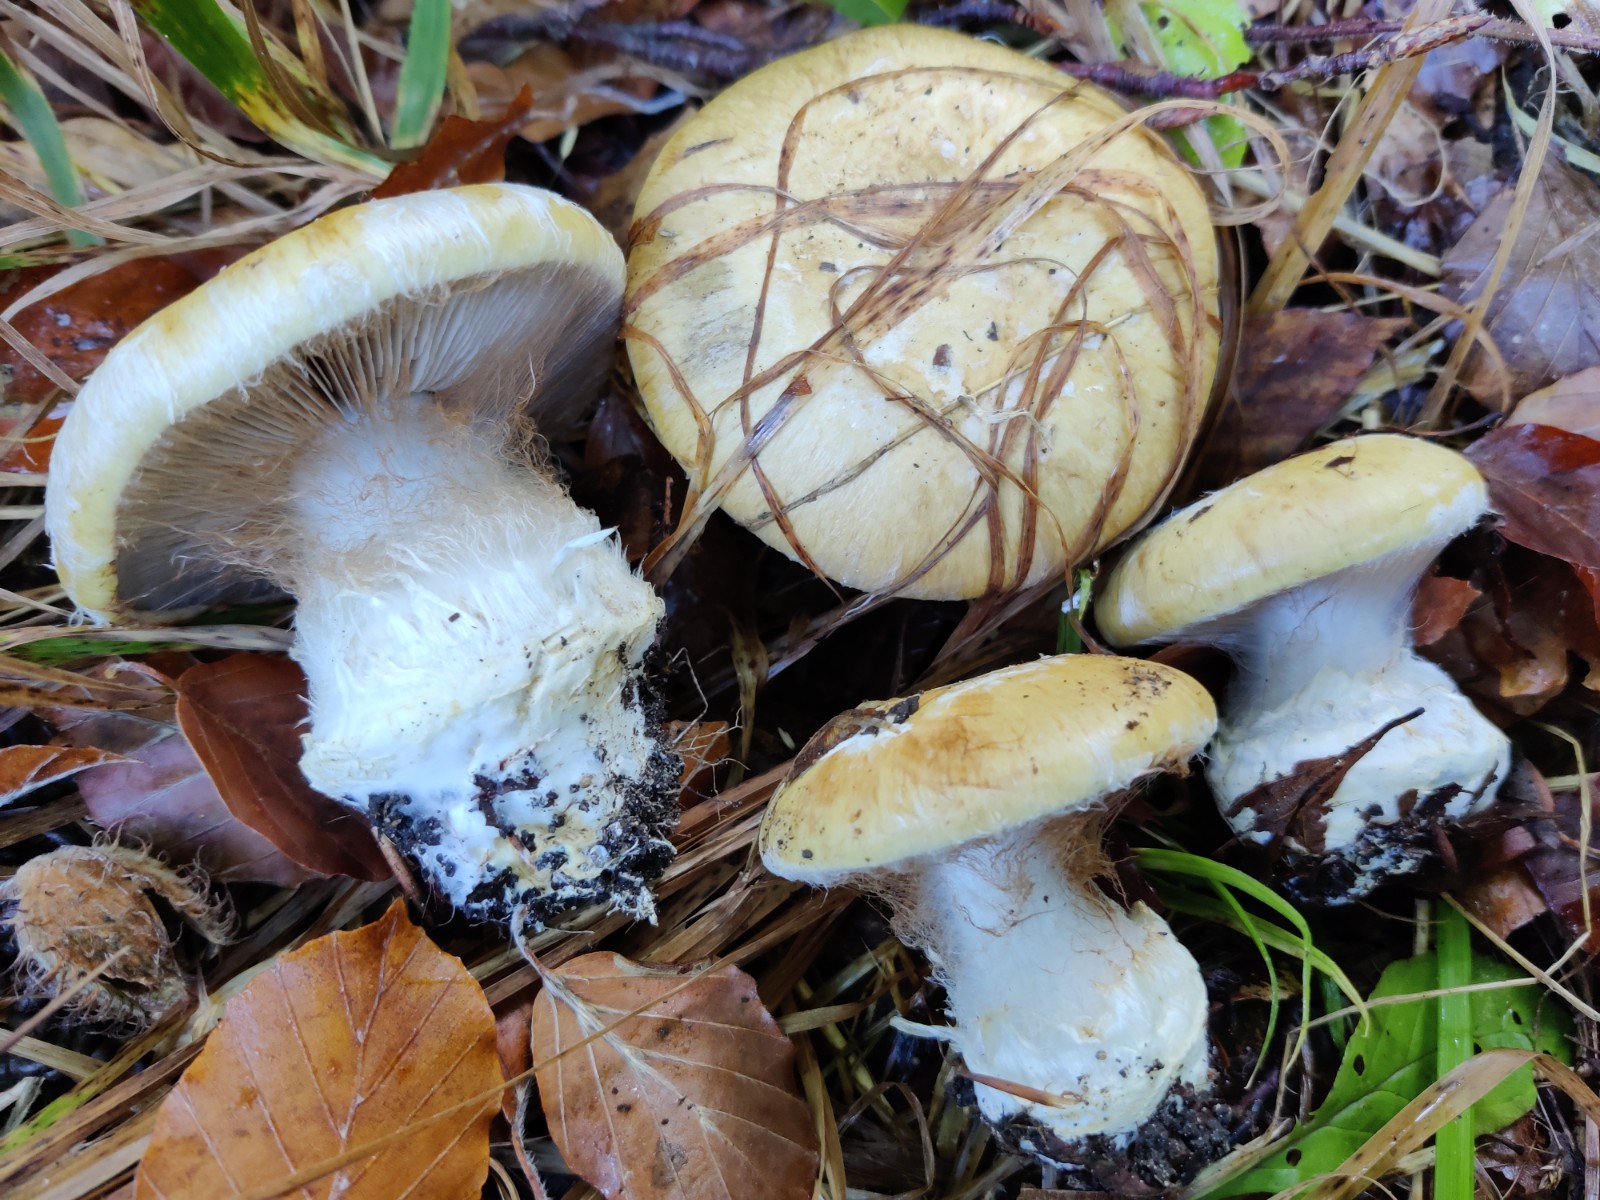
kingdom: Fungi
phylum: Basidiomycota
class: Agaricomycetes
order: Agaricales
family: Cortinariaceae
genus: Cortinarius
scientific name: Cortinarius anserinus
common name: bøge-slørhat
